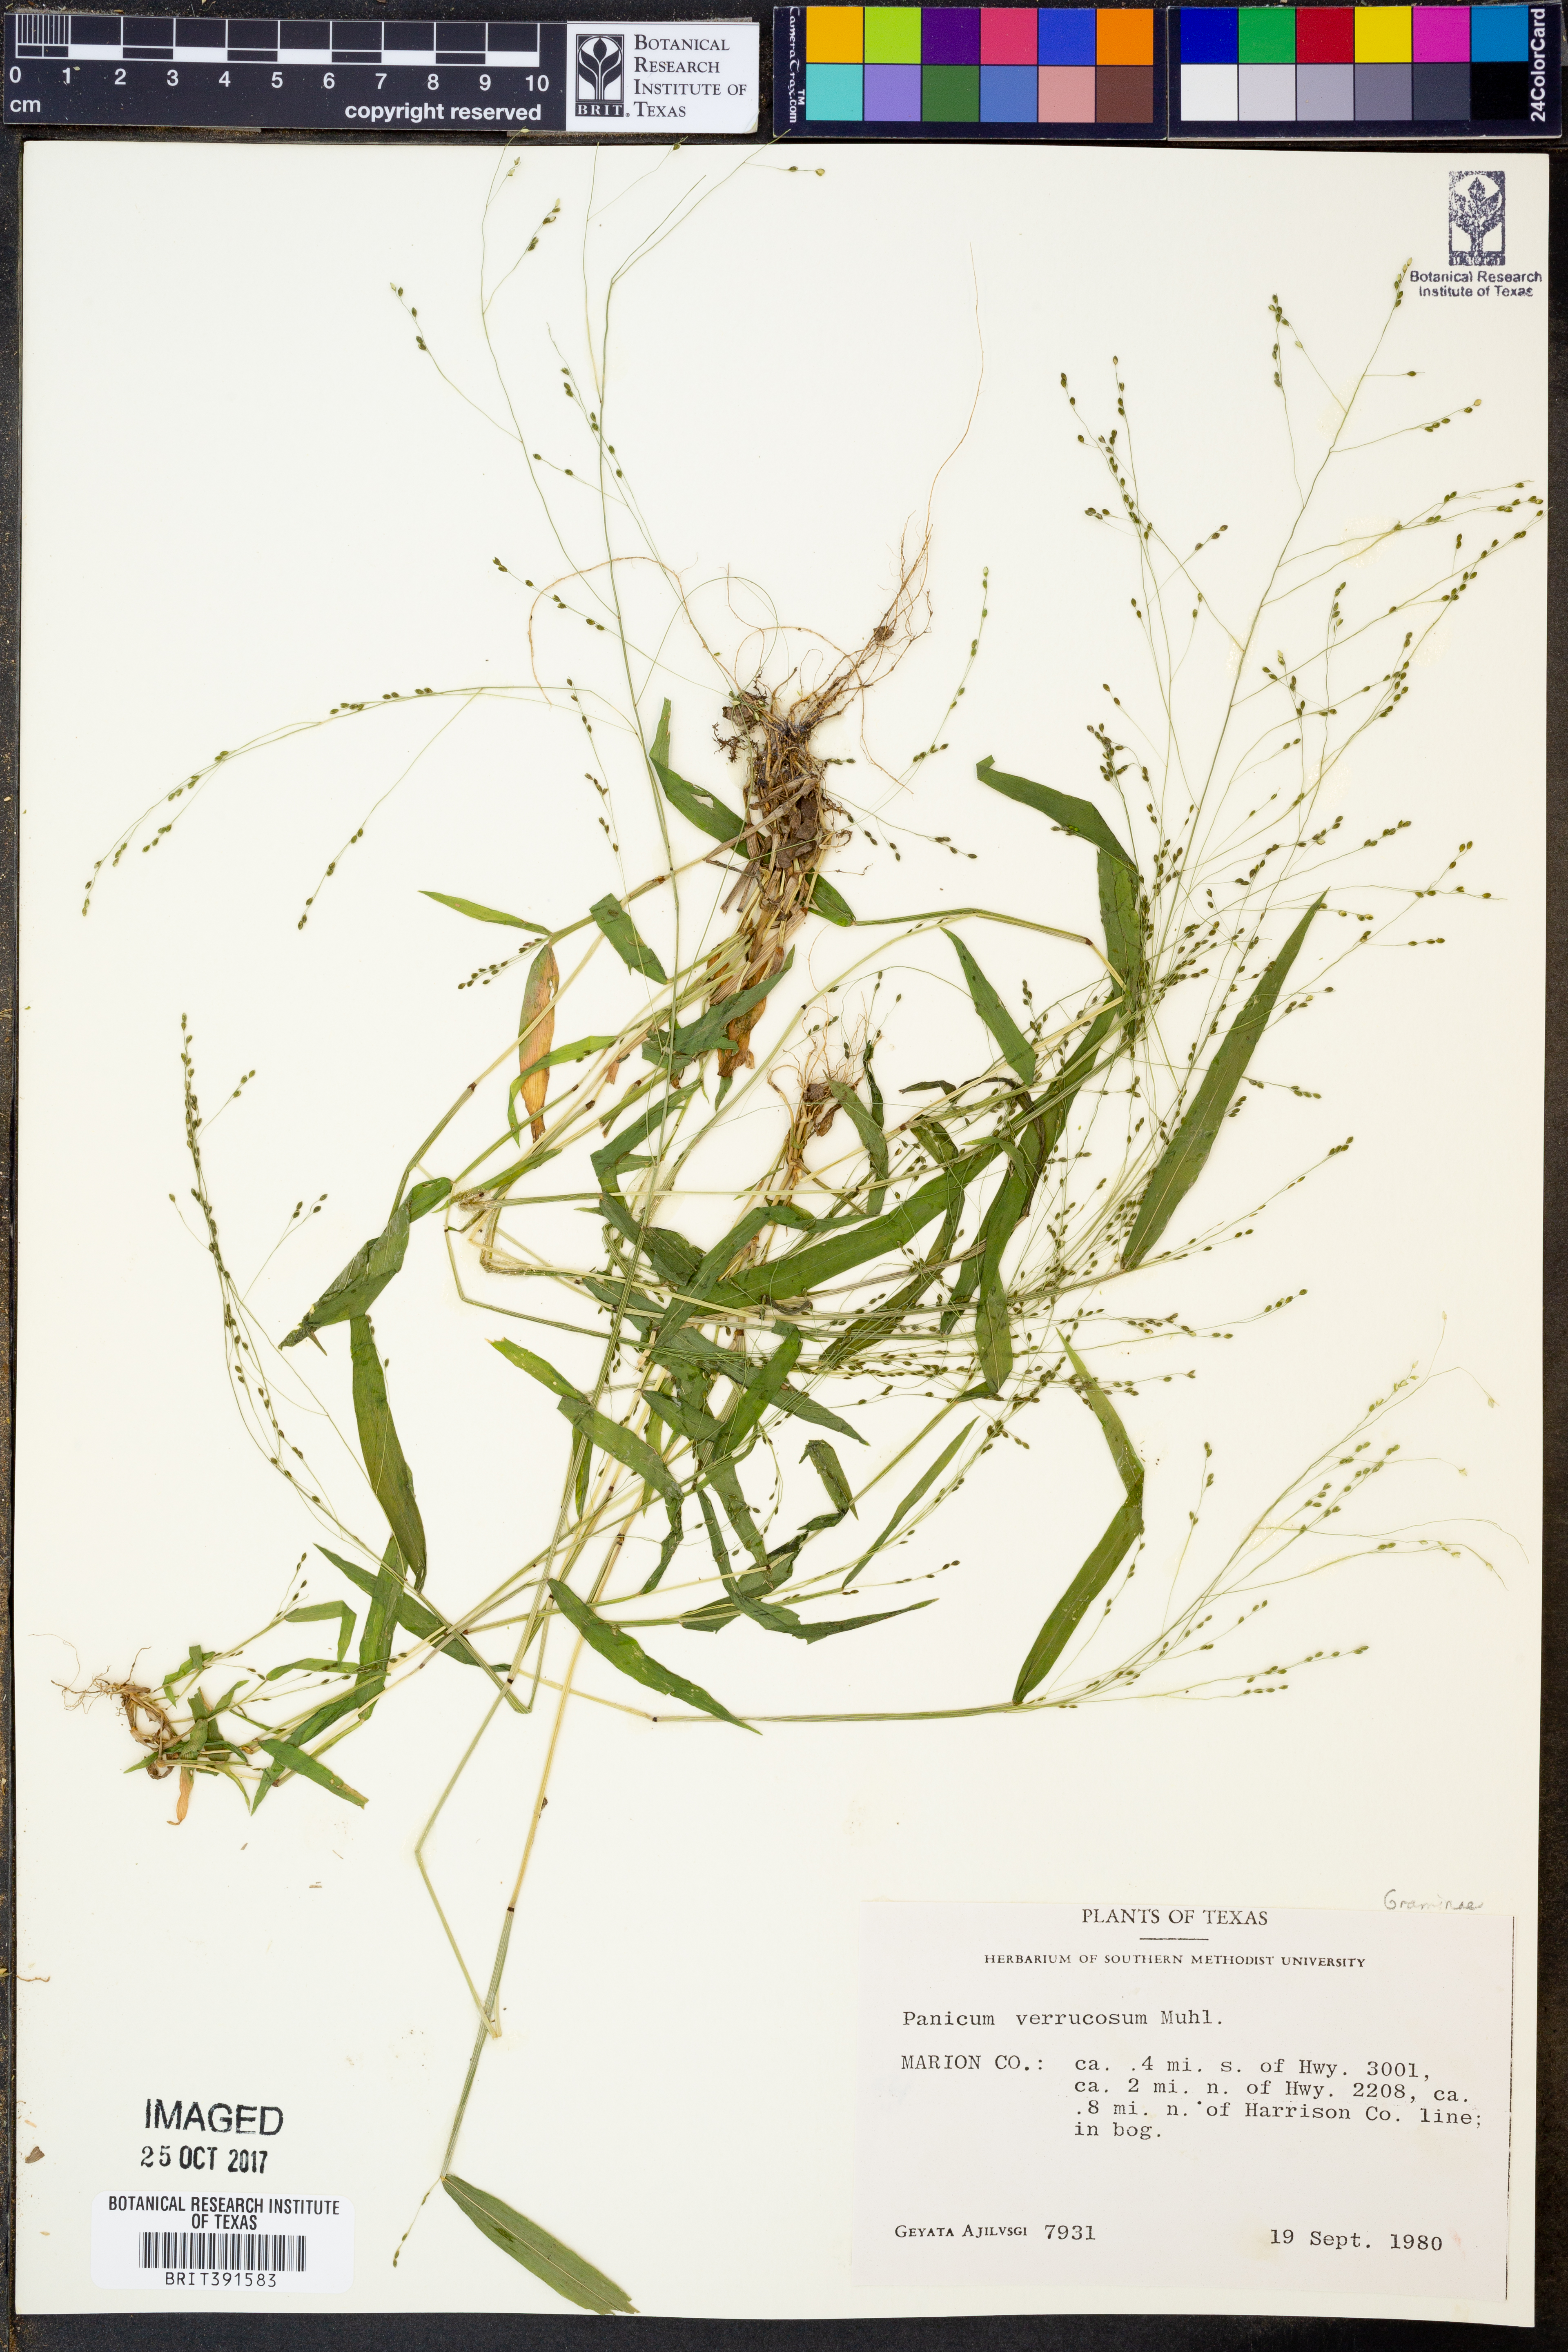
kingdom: Plantae
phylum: Tracheophyta
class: Liliopsida
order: Poales
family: Poaceae
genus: Kellochloa
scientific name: Kellochloa verrucosa
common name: Warty panic grass
